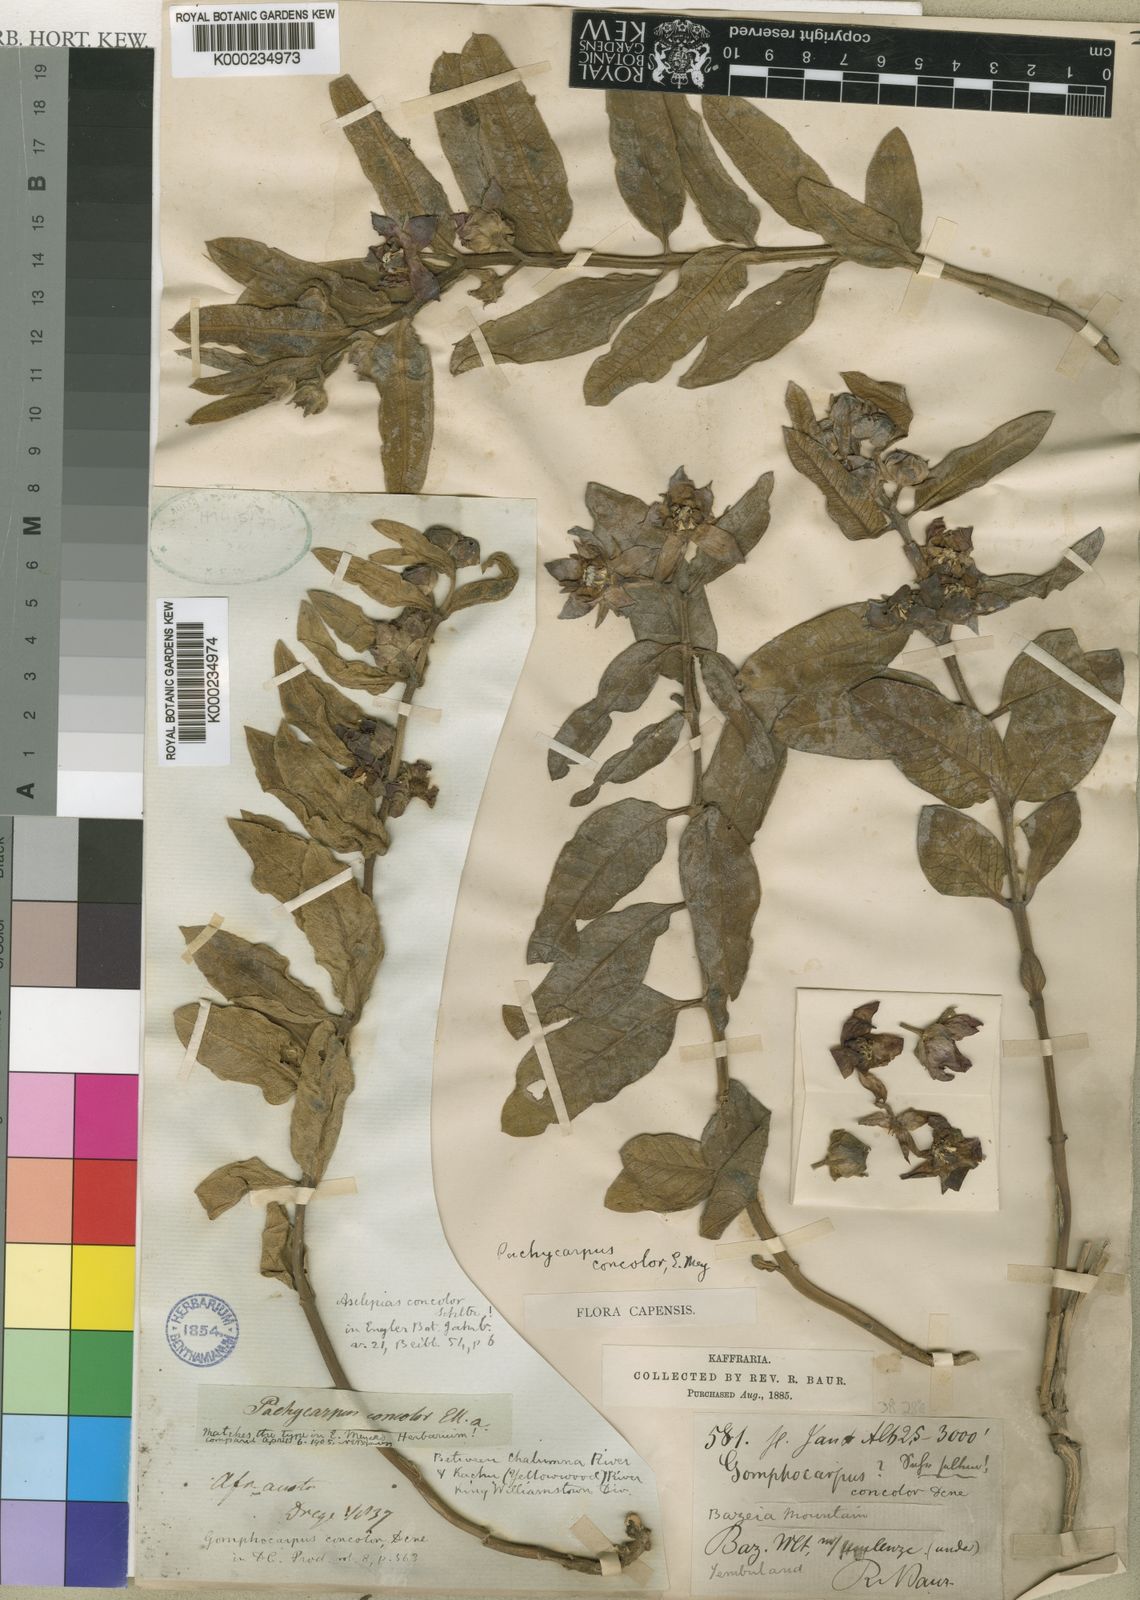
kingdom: Plantae
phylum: Tracheophyta
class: Magnoliopsida
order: Gentianales
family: Apocynaceae
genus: Pachycarpus
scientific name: Pachycarpus concolor
